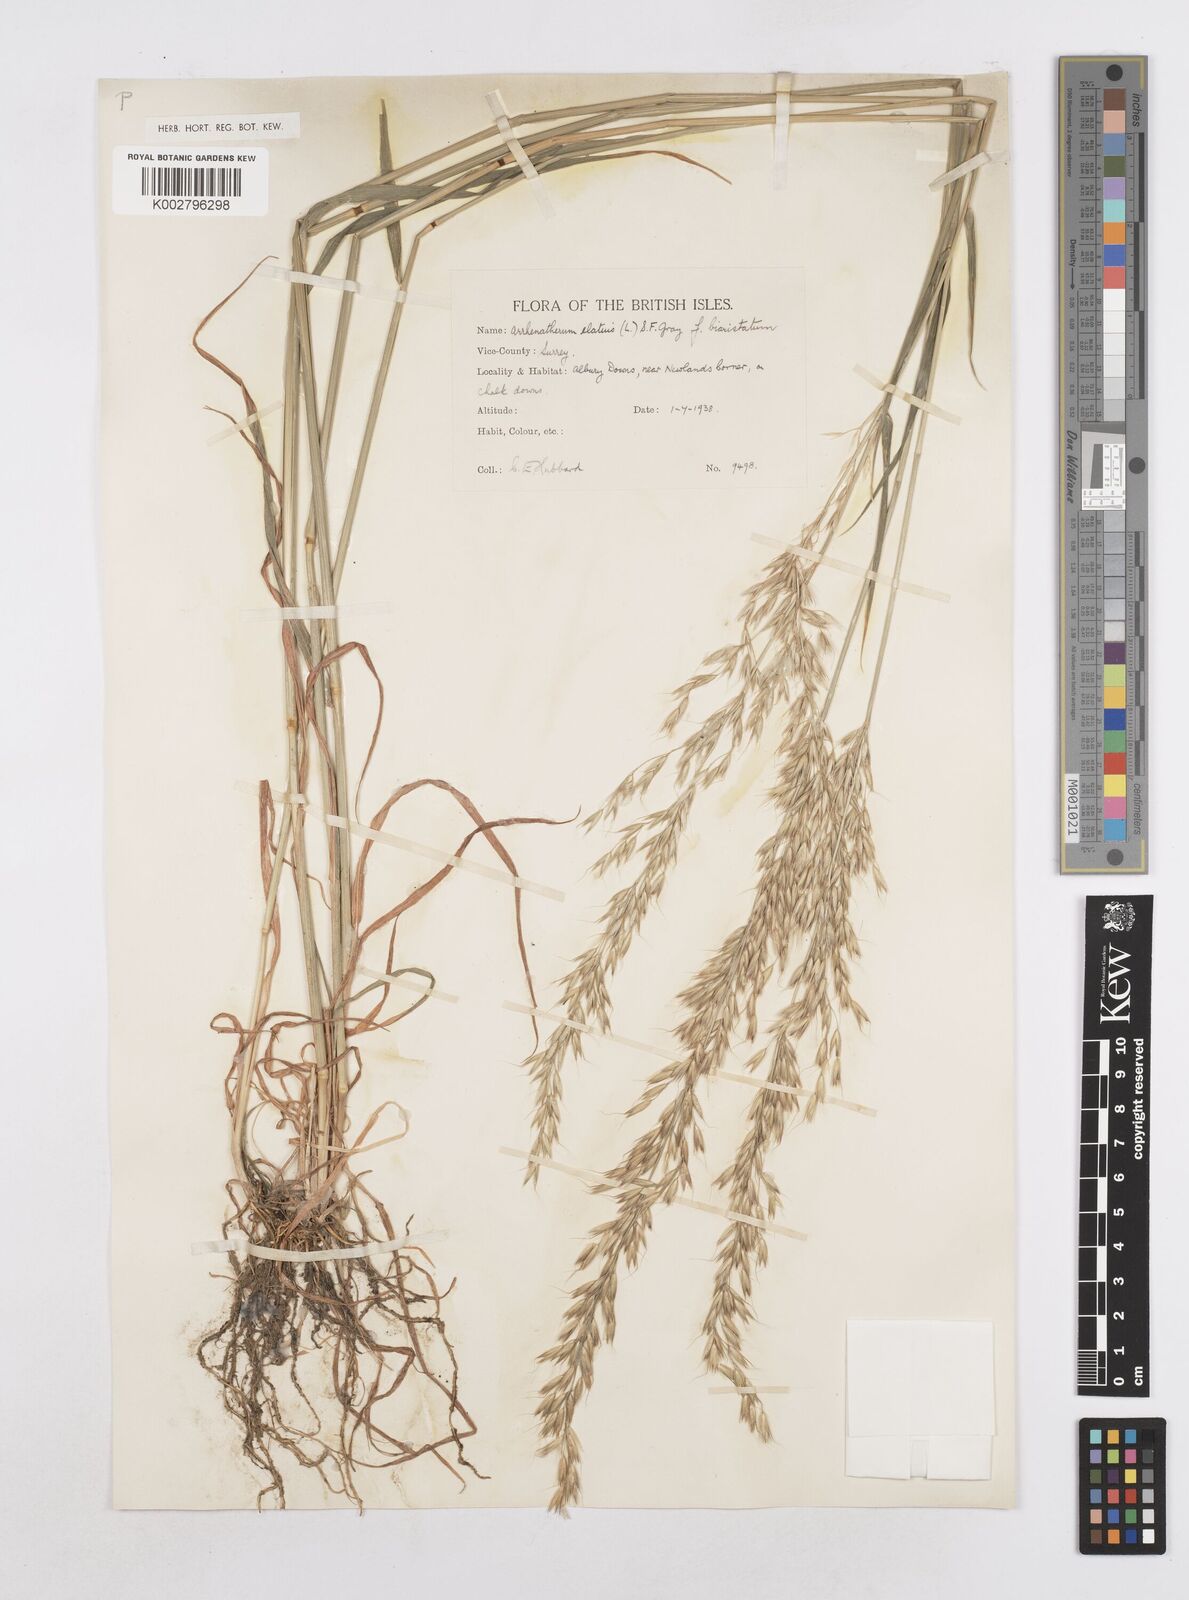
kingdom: Plantae
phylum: Tracheophyta
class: Liliopsida
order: Poales
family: Poaceae
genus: Arrhenatherum
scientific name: Arrhenatherum elatius
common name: Tall oatgrass
